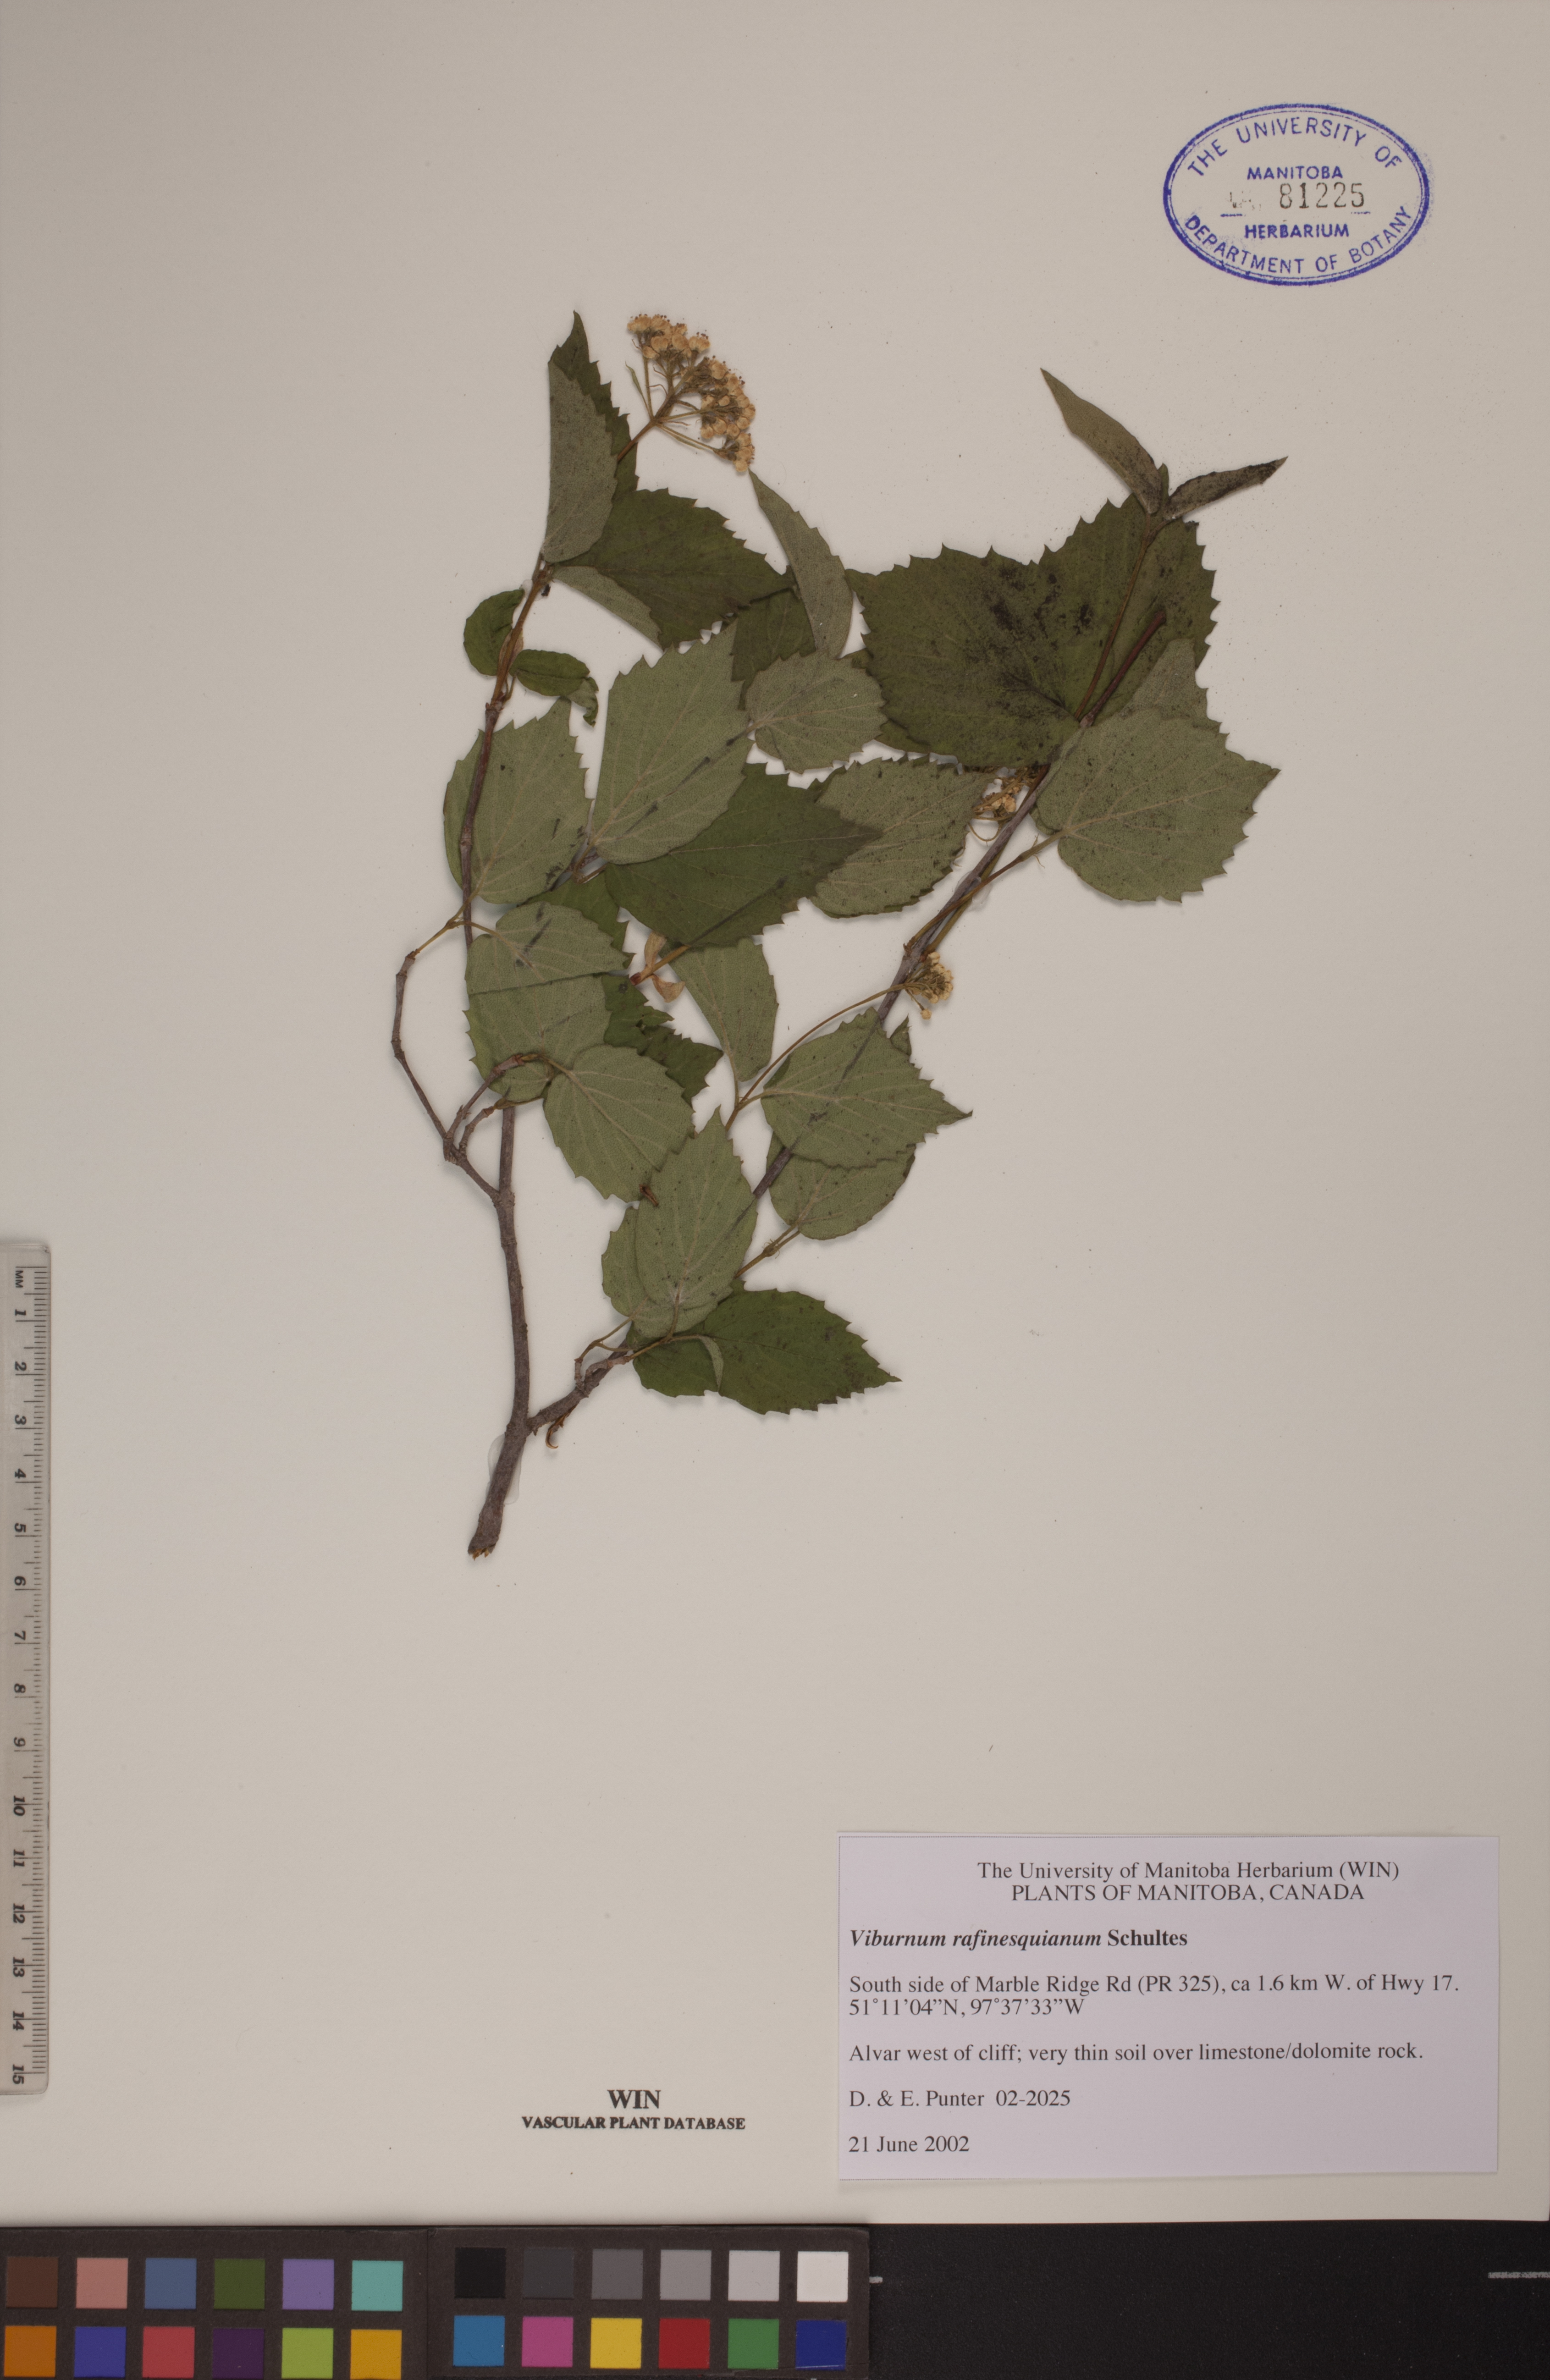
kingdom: Plantae
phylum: Tracheophyta
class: Magnoliopsida
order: Dipsacales
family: Viburnaceae
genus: Viburnum
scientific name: Viburnum rafinesquianum
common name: Downy arrow-wood
